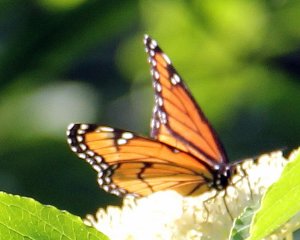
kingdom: Animalia
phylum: Arthropoda
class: Insecta
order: Lepidoptera
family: Nymphalidae
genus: Limenitis
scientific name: Limenitis archippus
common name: Viceroy
